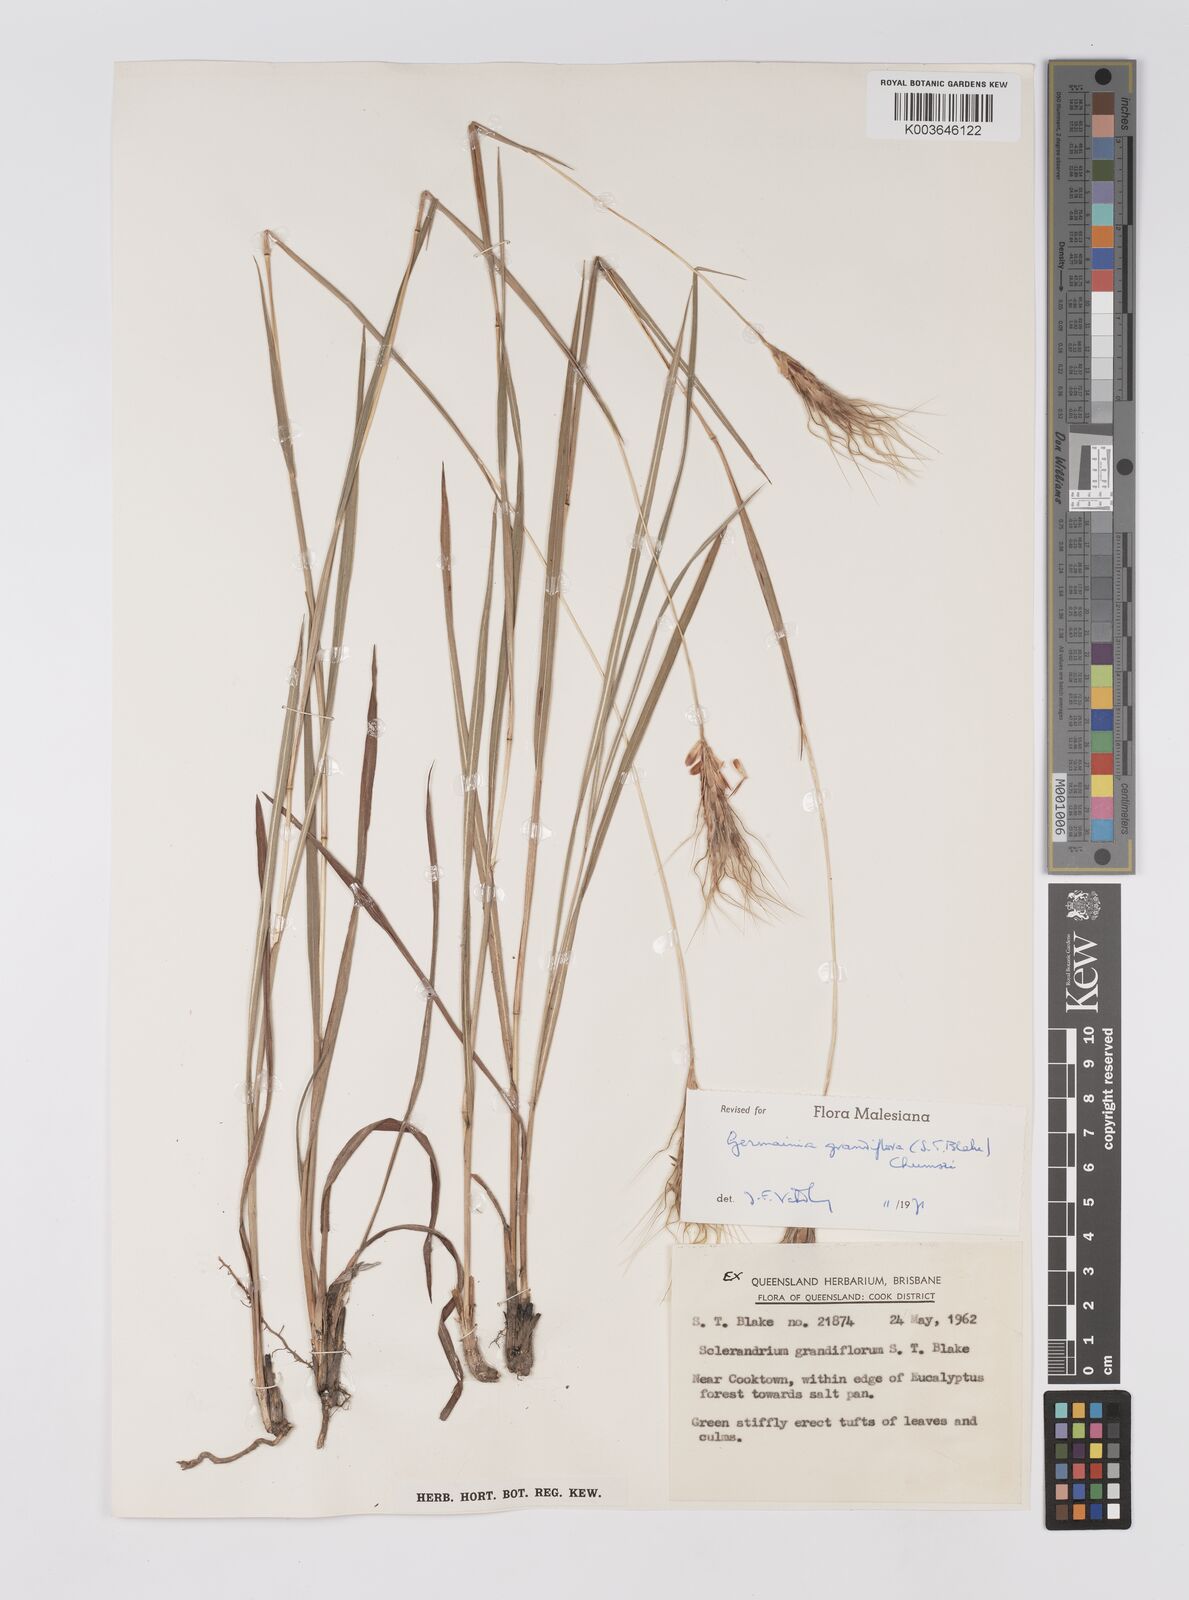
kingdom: Plantae
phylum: Tracheophyta
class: Liliopsida
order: Poales
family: Poaceae
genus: Germainia
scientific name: Germainia grandiflora
